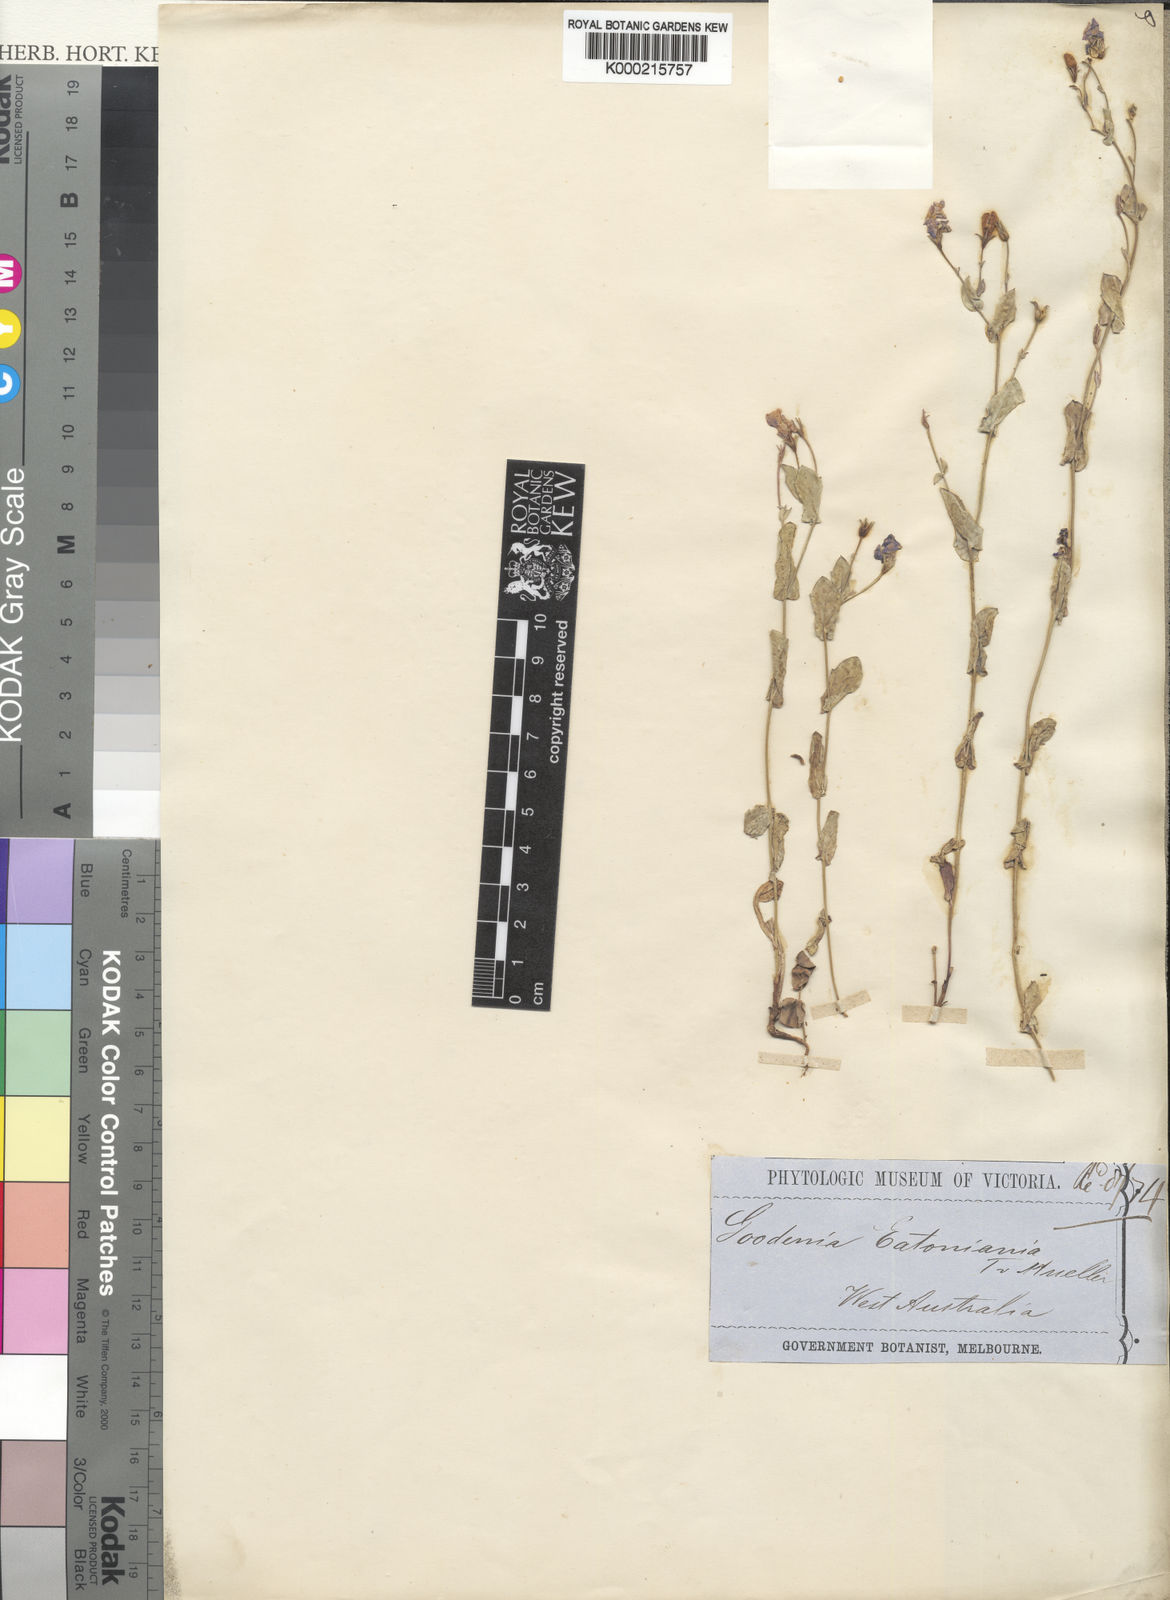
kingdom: Plantae
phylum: Tracheophyta
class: Magnoliopsida
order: Asterales
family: Goodeniaceae
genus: Goodenia
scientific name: Goodenia eatoniana
